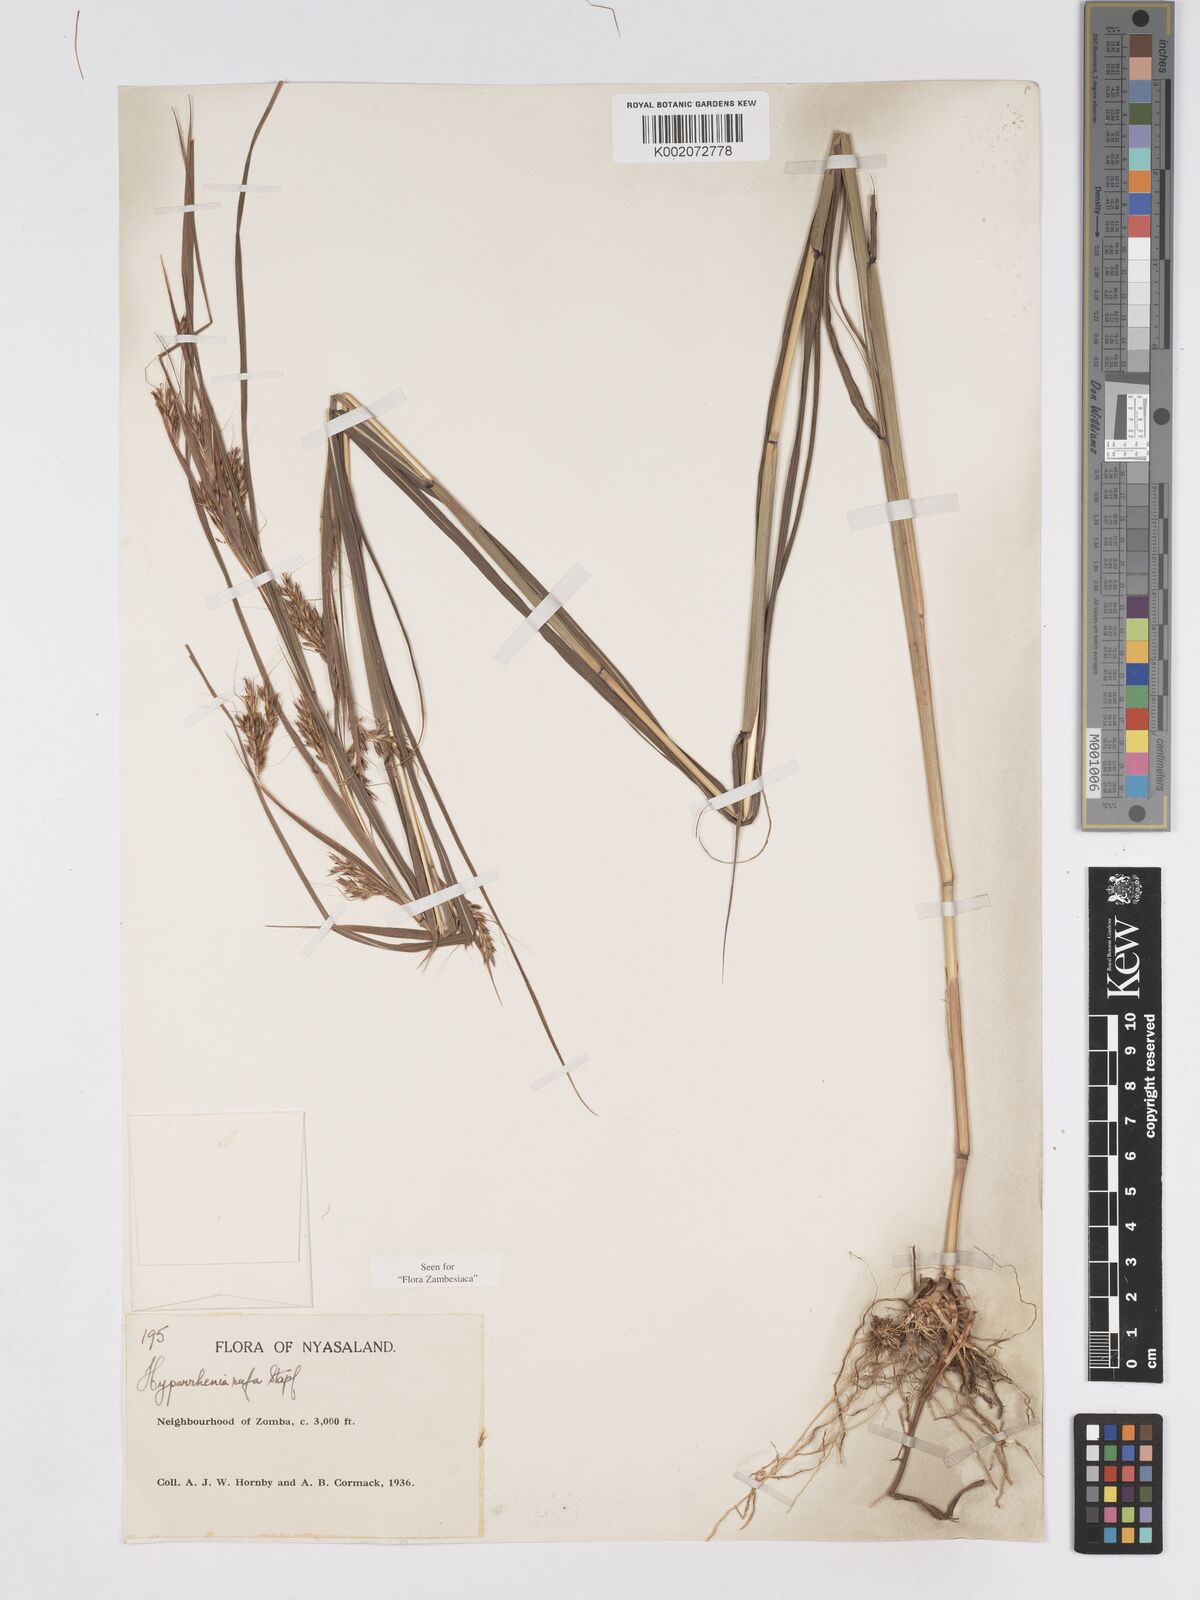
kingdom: Plantae
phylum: Tracheophyta
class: Liliopsida
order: Poales
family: Poaceae
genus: Hyparrhenia
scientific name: Hyparrhenia rufa
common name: Jaraguagrass
